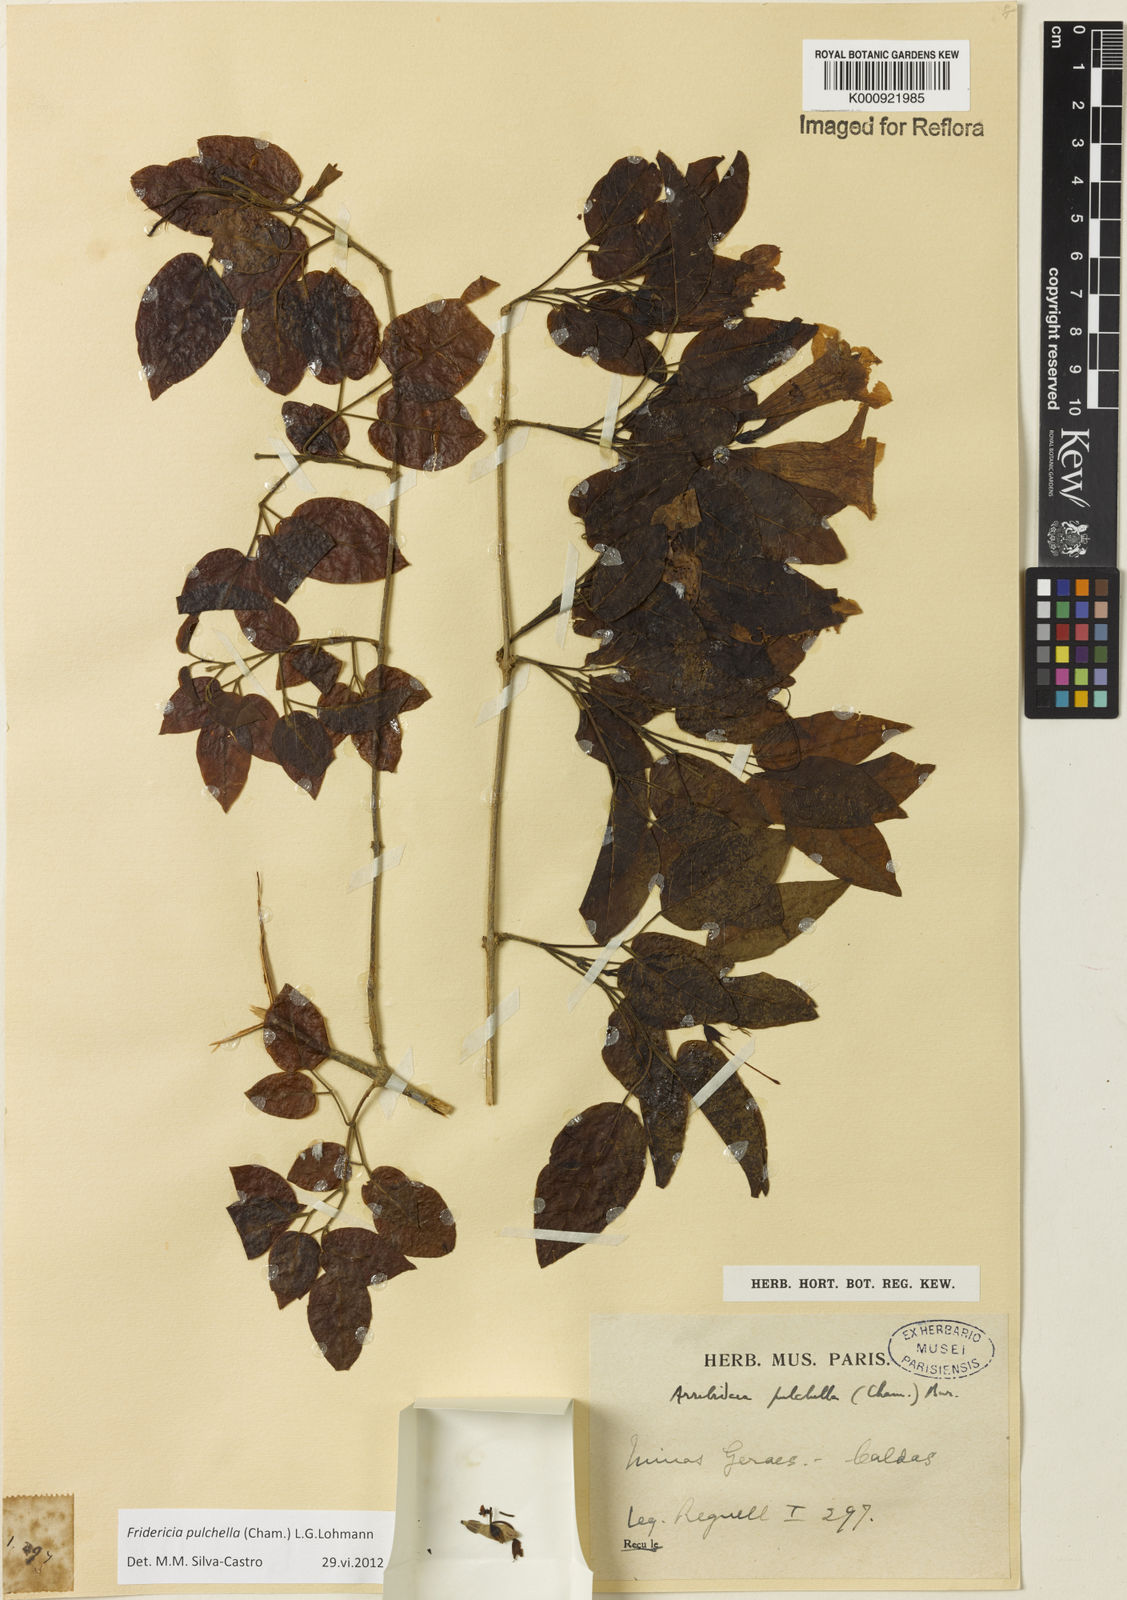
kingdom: Plantae
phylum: Tracheophyta
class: Magnoliopsida
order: Lamiales
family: Bignoniaceae
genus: Fridericia
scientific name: Fridericia
